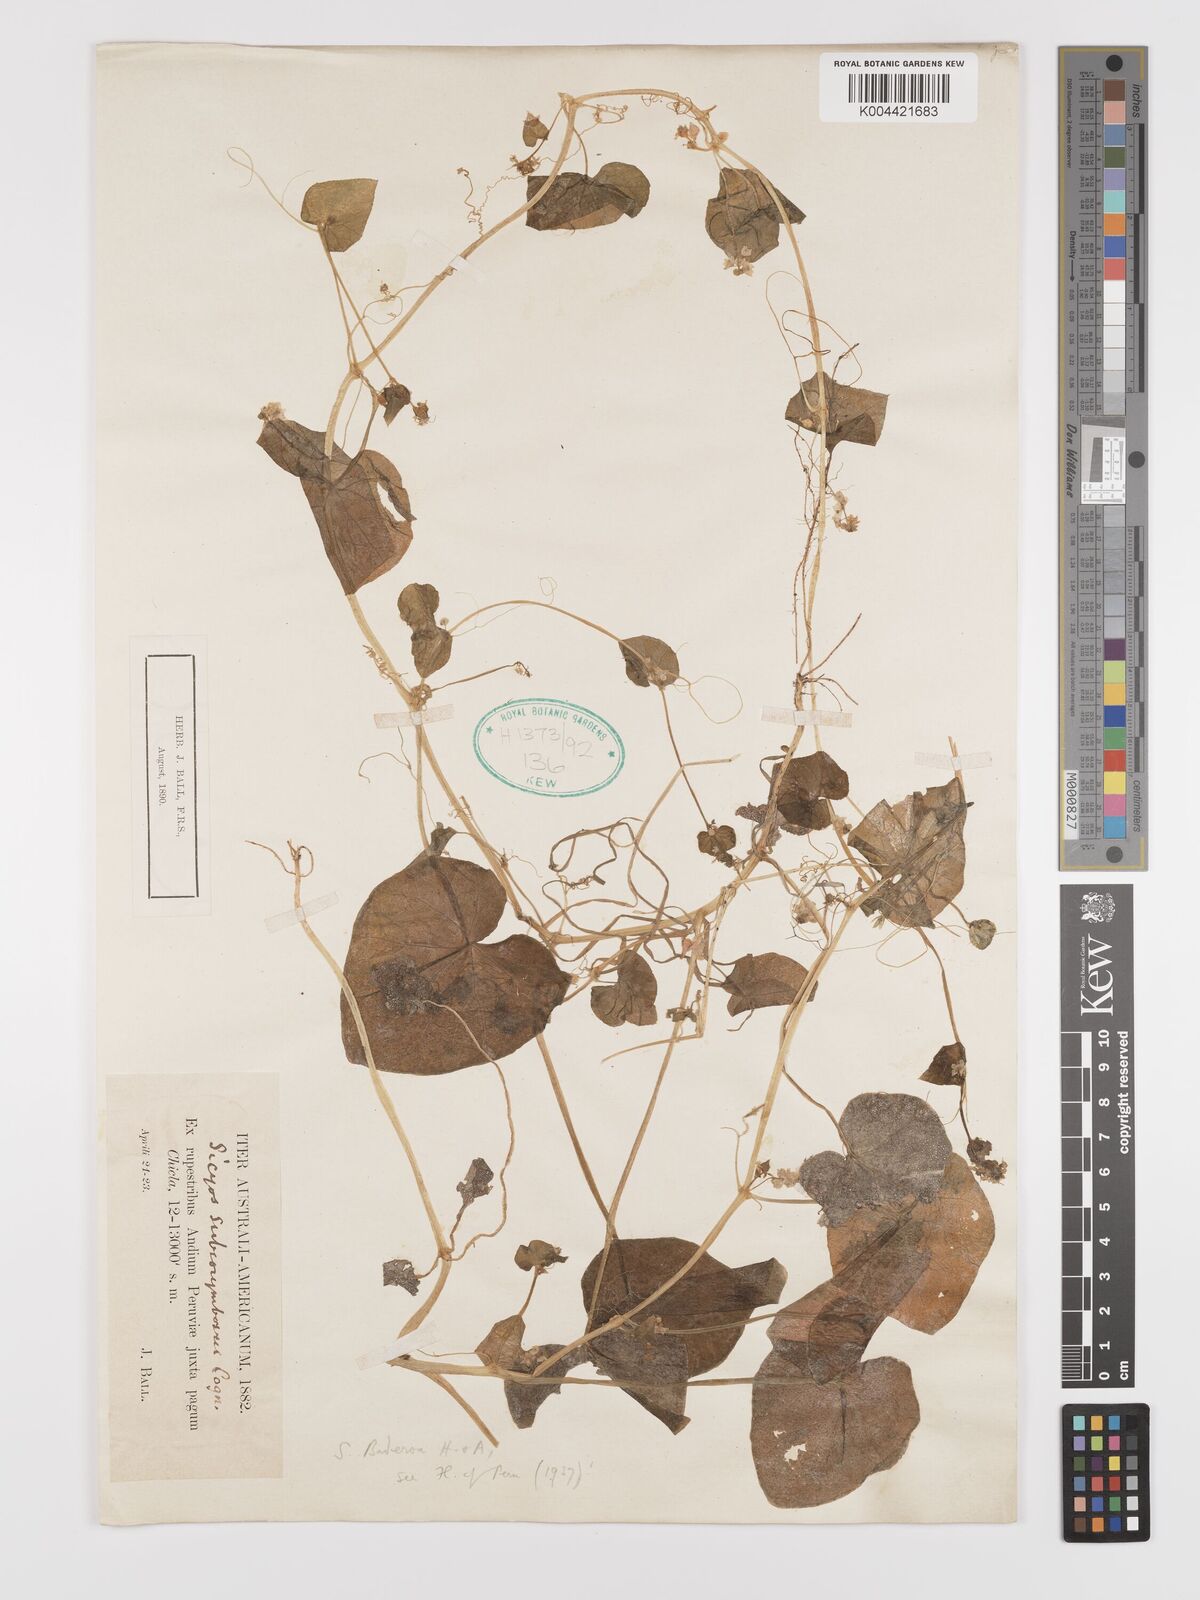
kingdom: Plantae
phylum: Tracheophyta
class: Magnoliopsida
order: Cucurbitales
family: Cucurbitaceae
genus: Sicyos
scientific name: Sicyos baderoa
